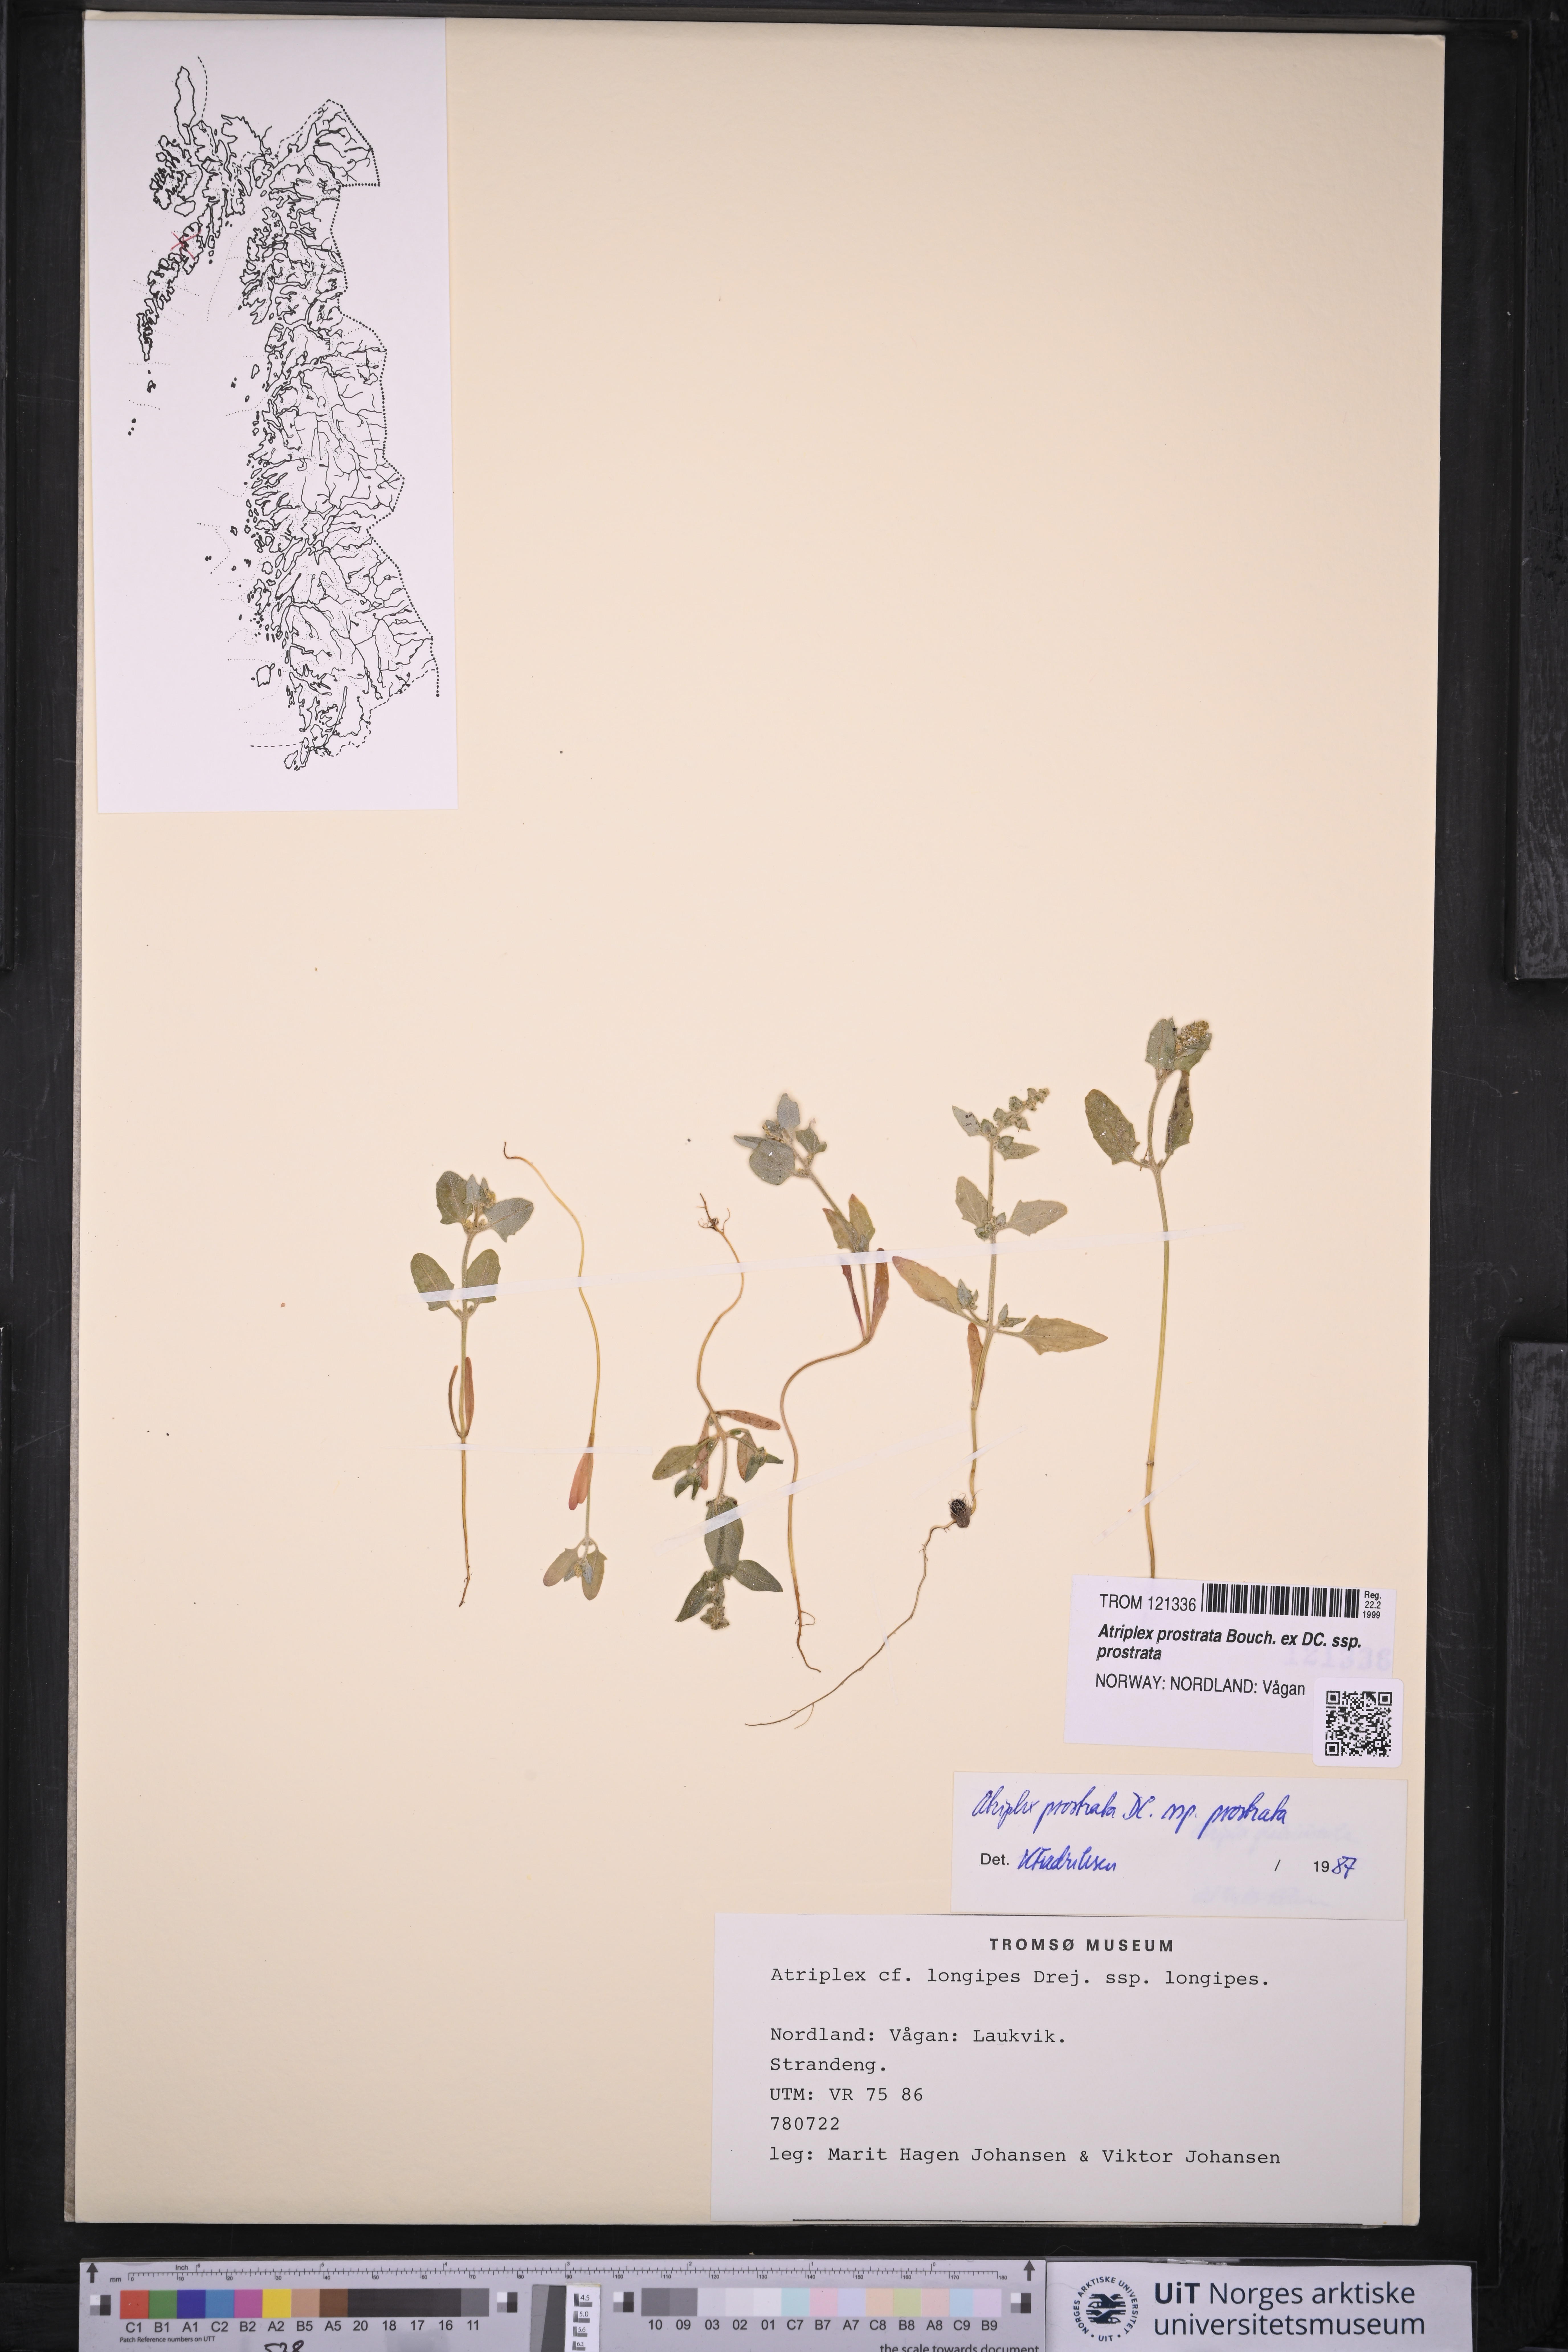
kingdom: Plantae
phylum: Tracheophyta
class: Magnoliopsida
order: Caryophyllales
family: Amaranthaceae
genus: Atriplex
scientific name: Atriplex prostrata
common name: Spear-leaved orache
